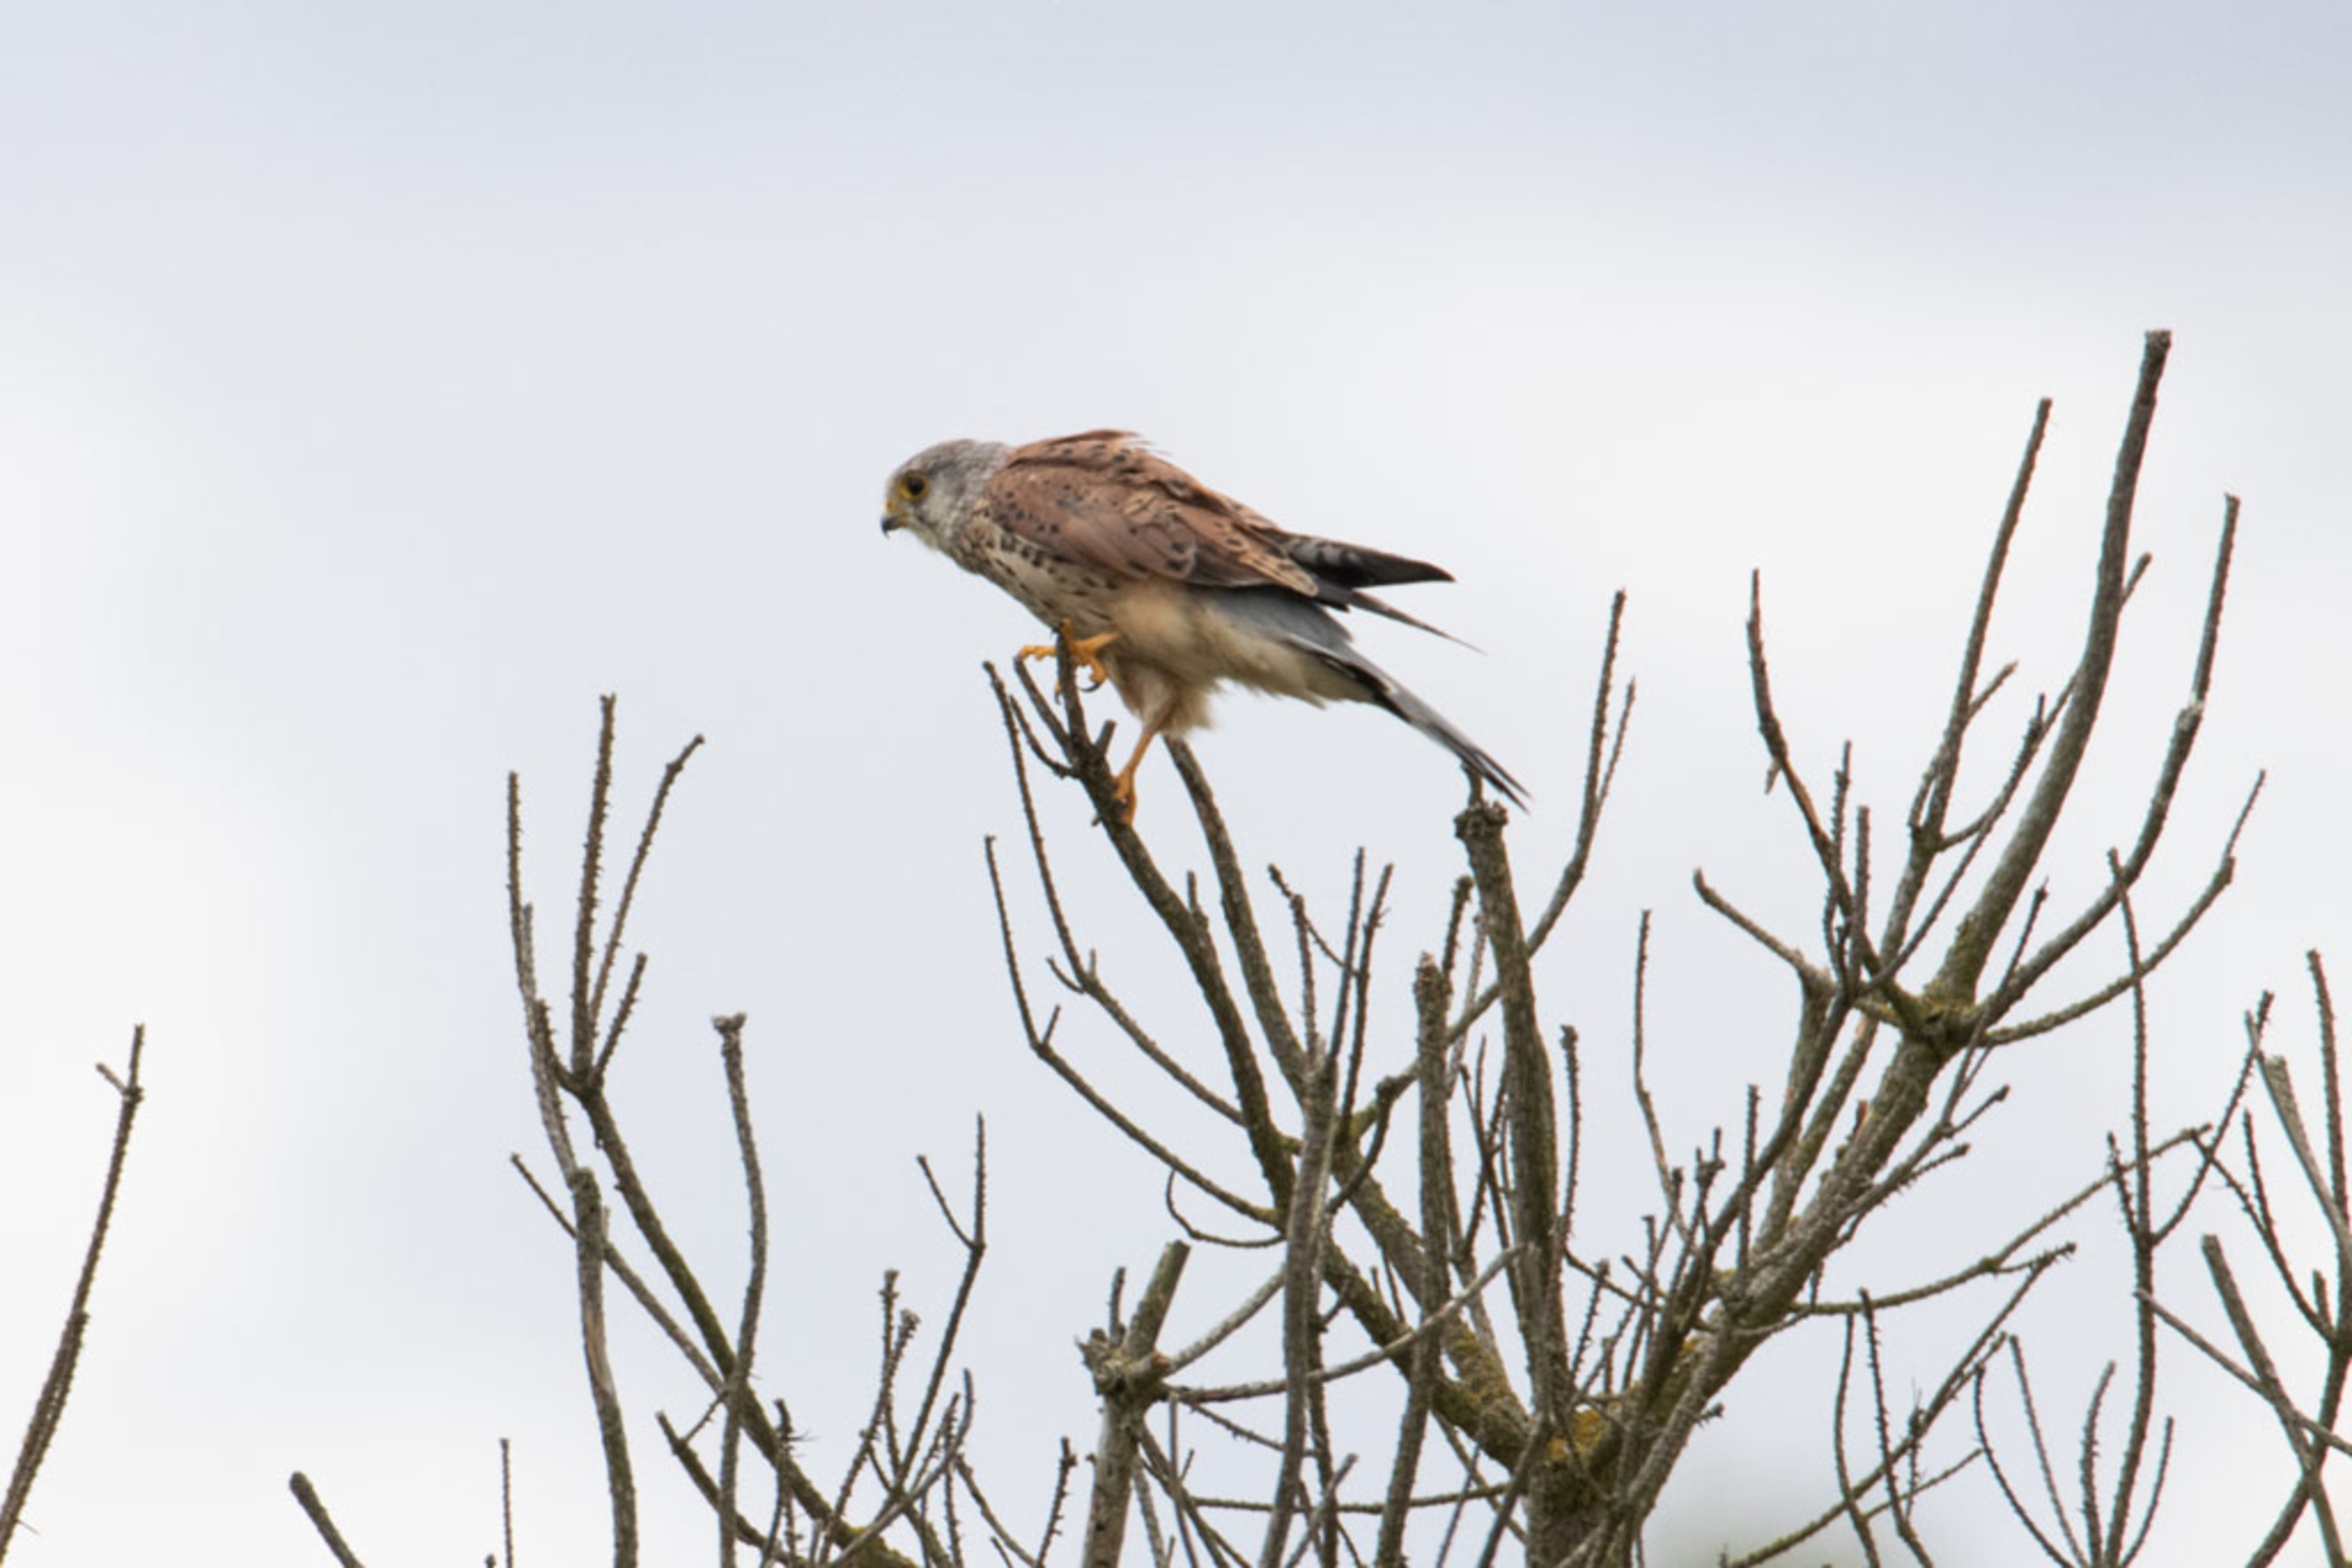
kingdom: Animalia
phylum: Chordata
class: Aves
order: Falconiformes
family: Falconidae
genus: Falco
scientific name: Falco tinnunculus
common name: Tårnfalk
